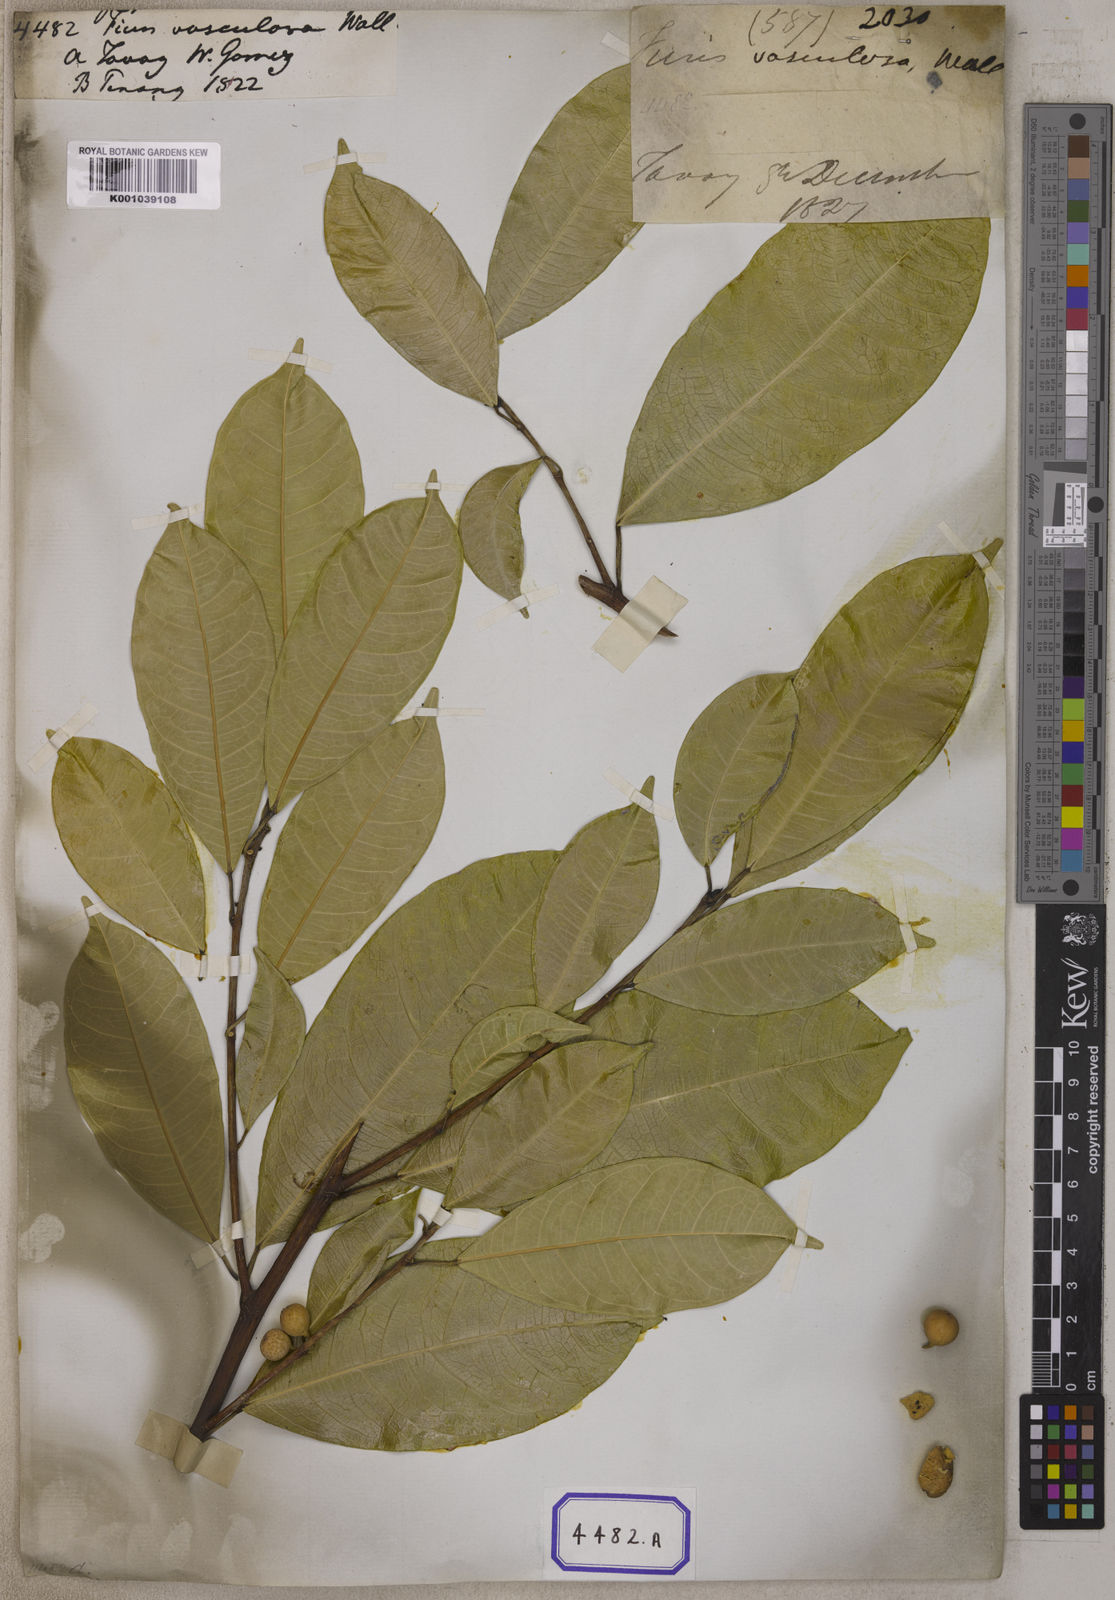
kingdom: Plantae
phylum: Tracheophyta
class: Magnoliopsida
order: Rosales
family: Moraceae
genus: Ficus
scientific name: Ficus
